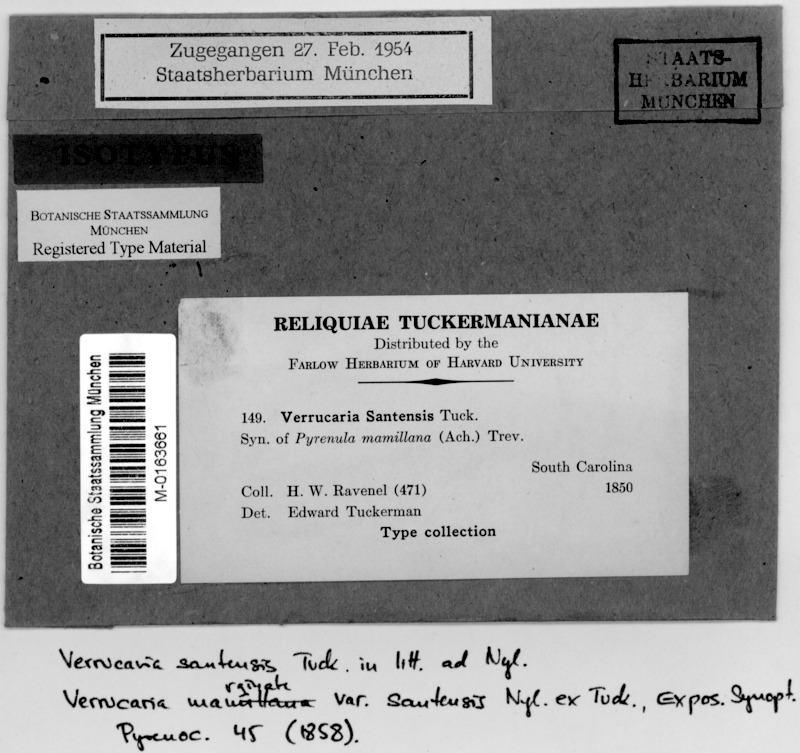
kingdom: Fungi
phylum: Ascomycota
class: Eurotiomycetes
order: Pyrenulales
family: Pyrenulaceae
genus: Pyrenula
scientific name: Pyrenula santensis
